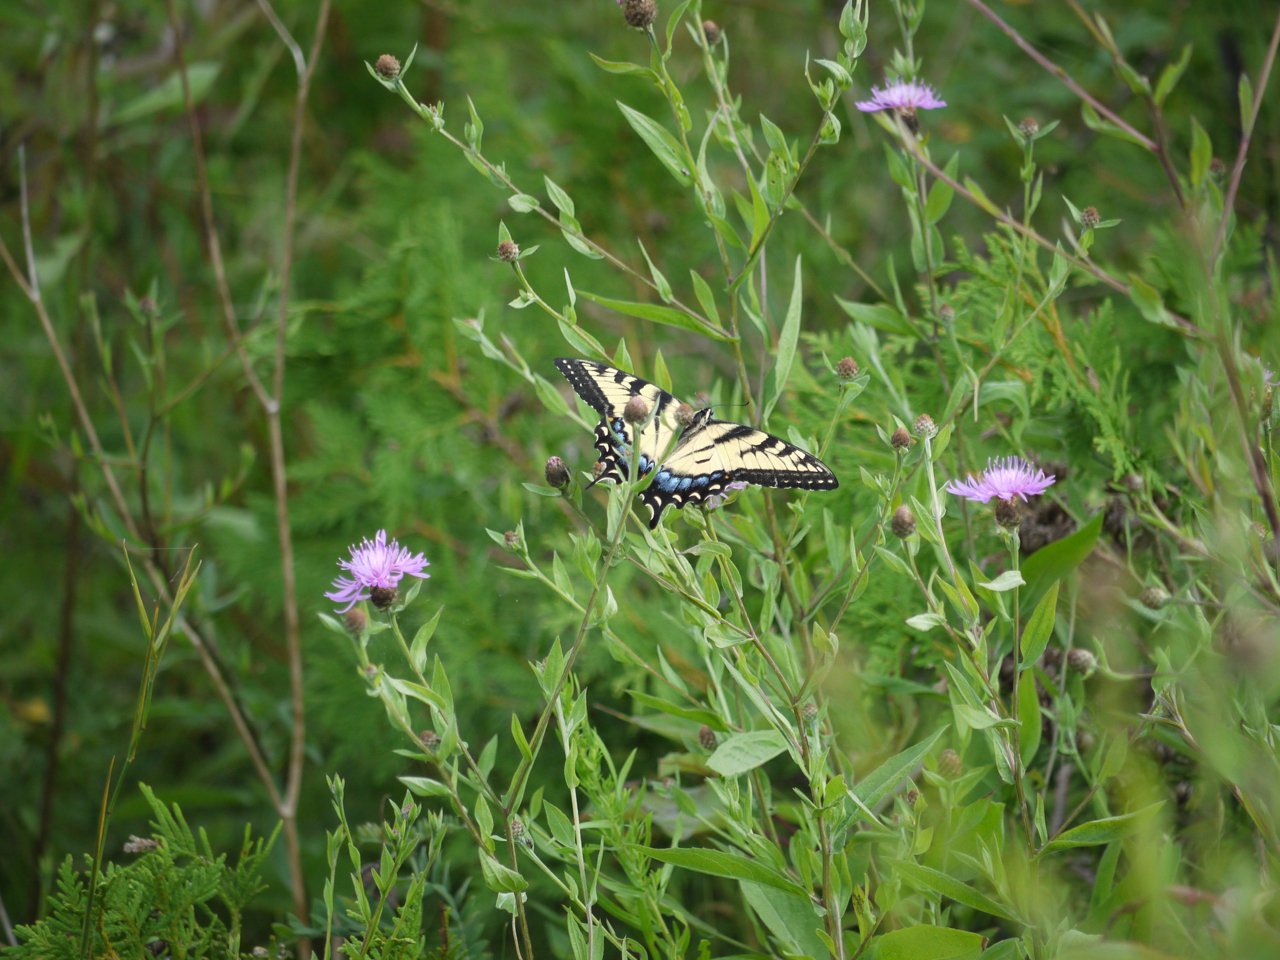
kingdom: Animalia
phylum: Arthropoda
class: Insecta
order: Lepidoptera
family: Papilionidae
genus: Pterourus
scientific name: Pterourus glaucus
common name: Eastern Tiger Swallowtail
